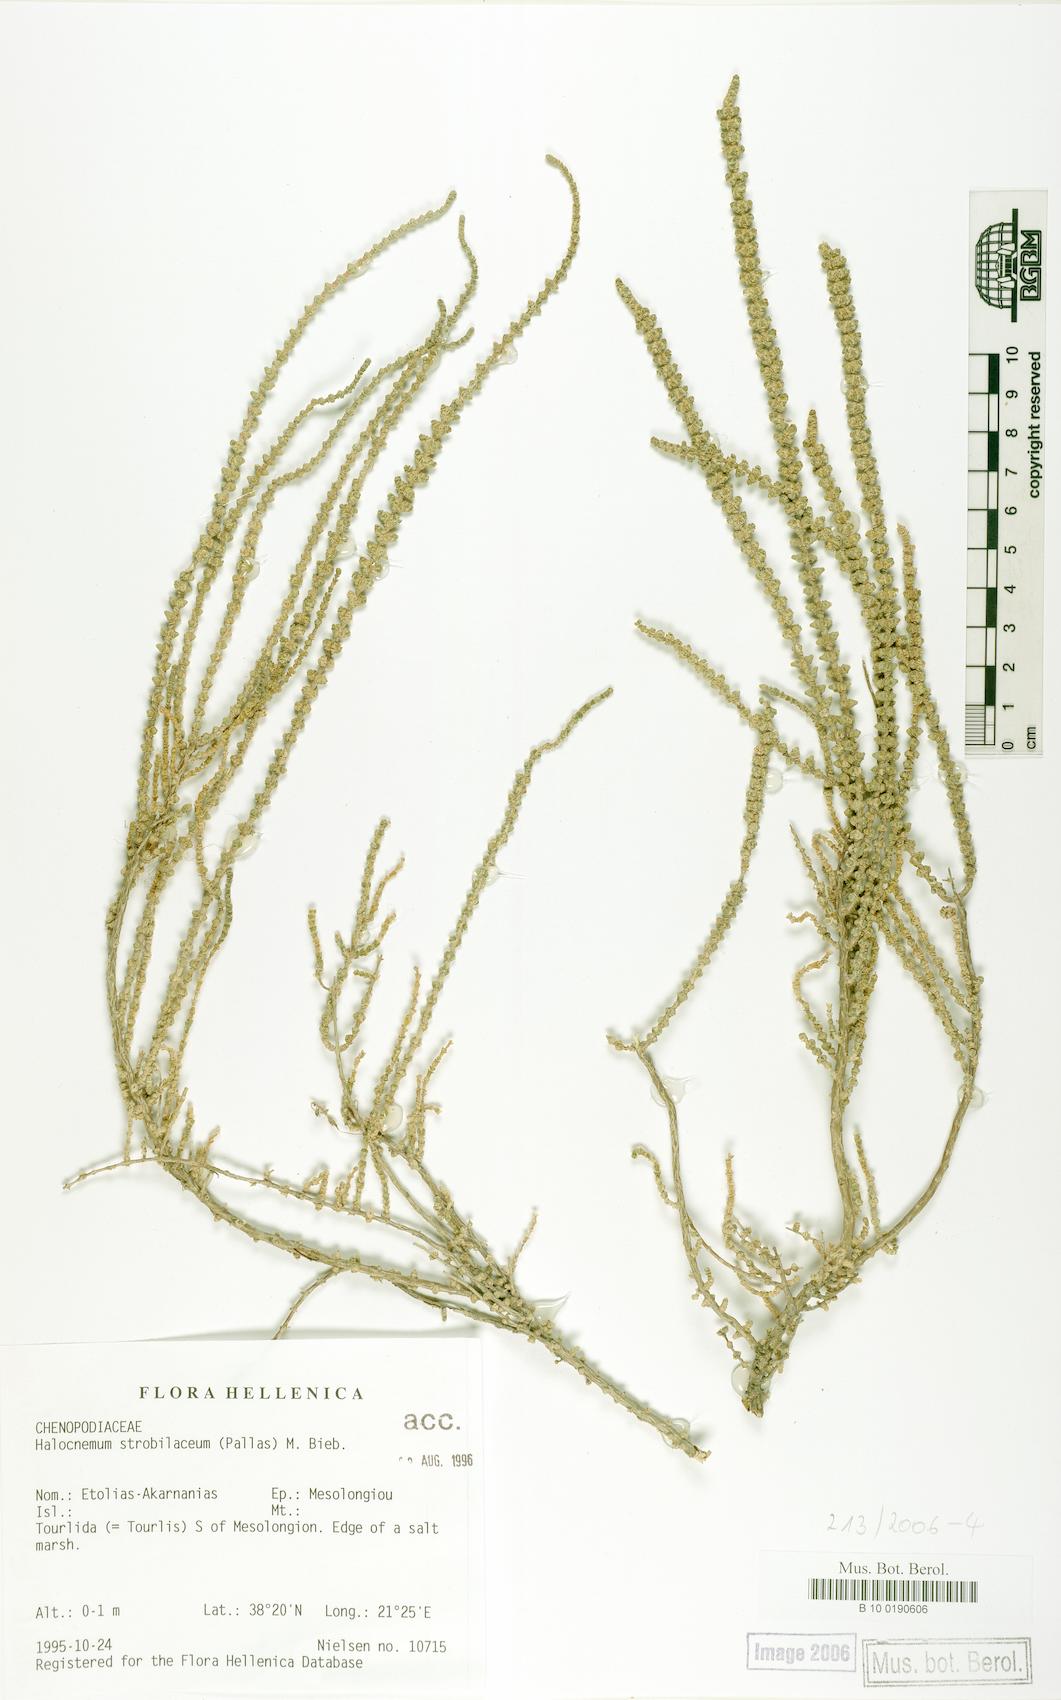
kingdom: Plantae
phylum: Tracheophyta
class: Magnoliopsida
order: Caryophyllales
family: Amaranthaceae
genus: Halocnemum
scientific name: Halocnemum strobilaceum
